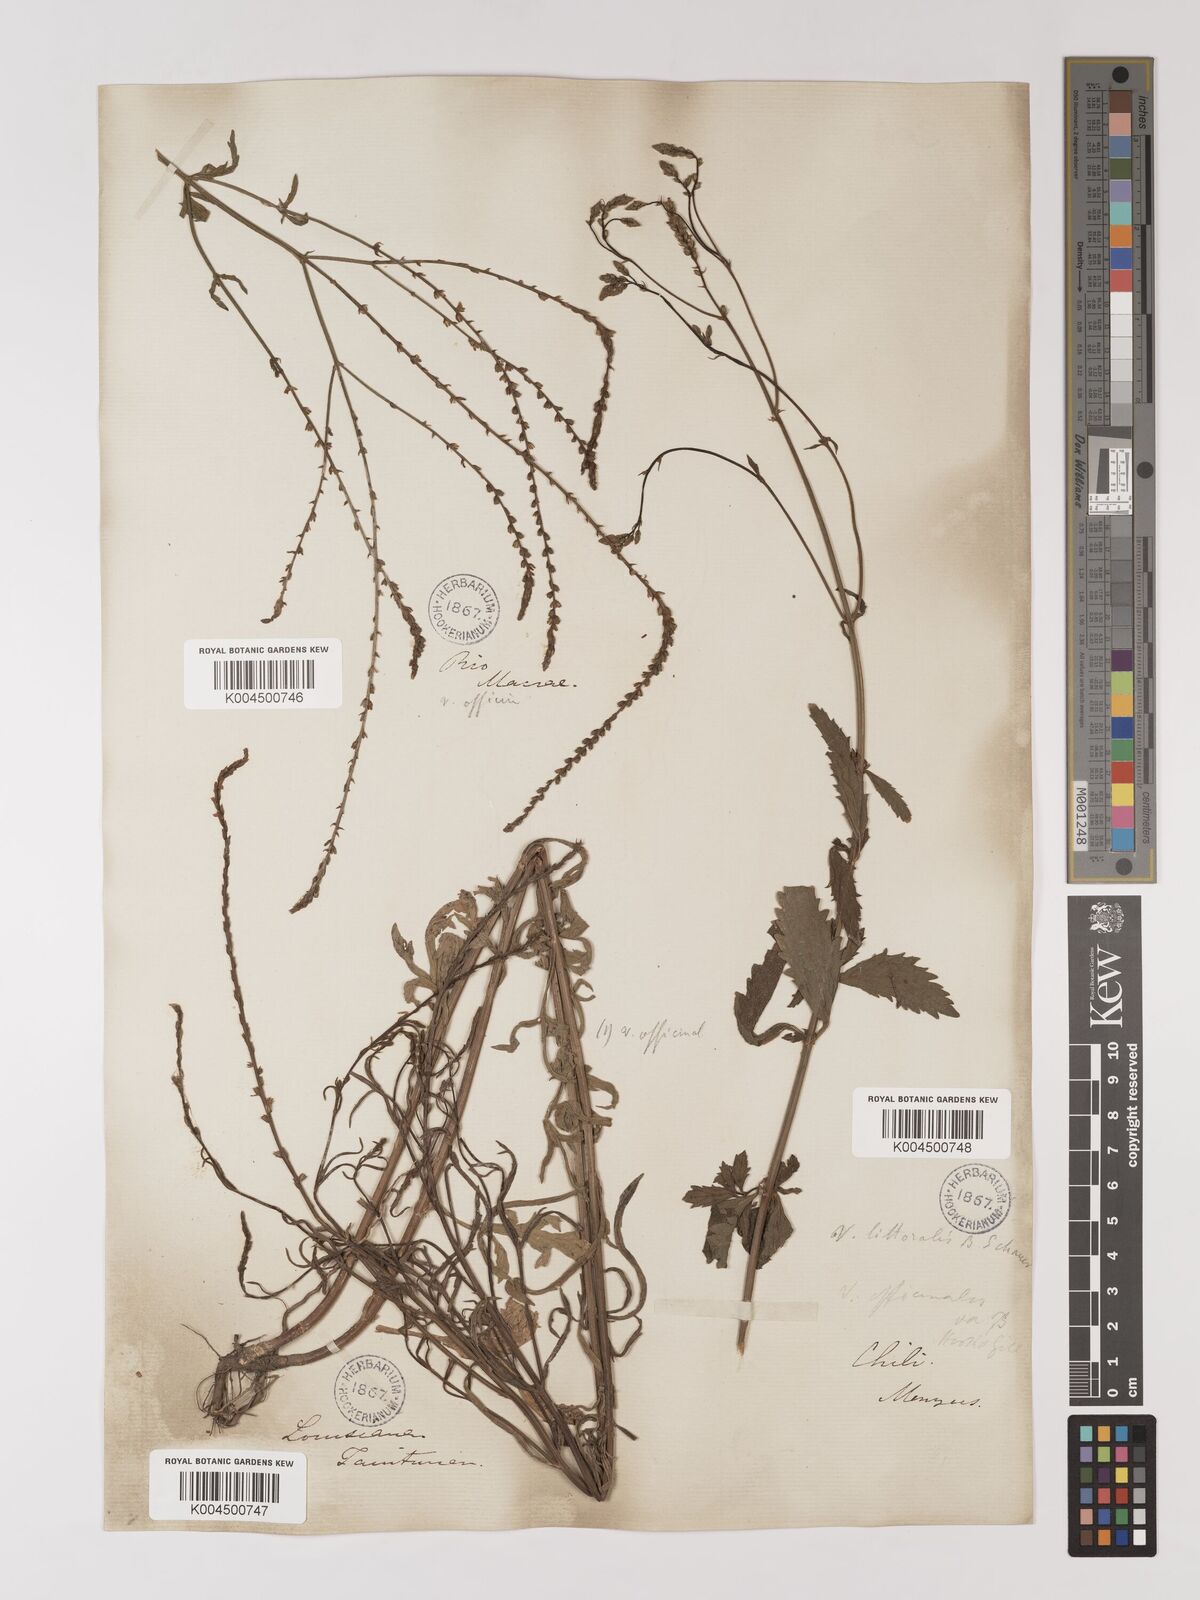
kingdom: Plantae
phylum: Tracheophyta
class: Magnoliopsida
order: Lamiales
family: Verbenaceae
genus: Verbena
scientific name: Verbena litoralis
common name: Seashore vervain
